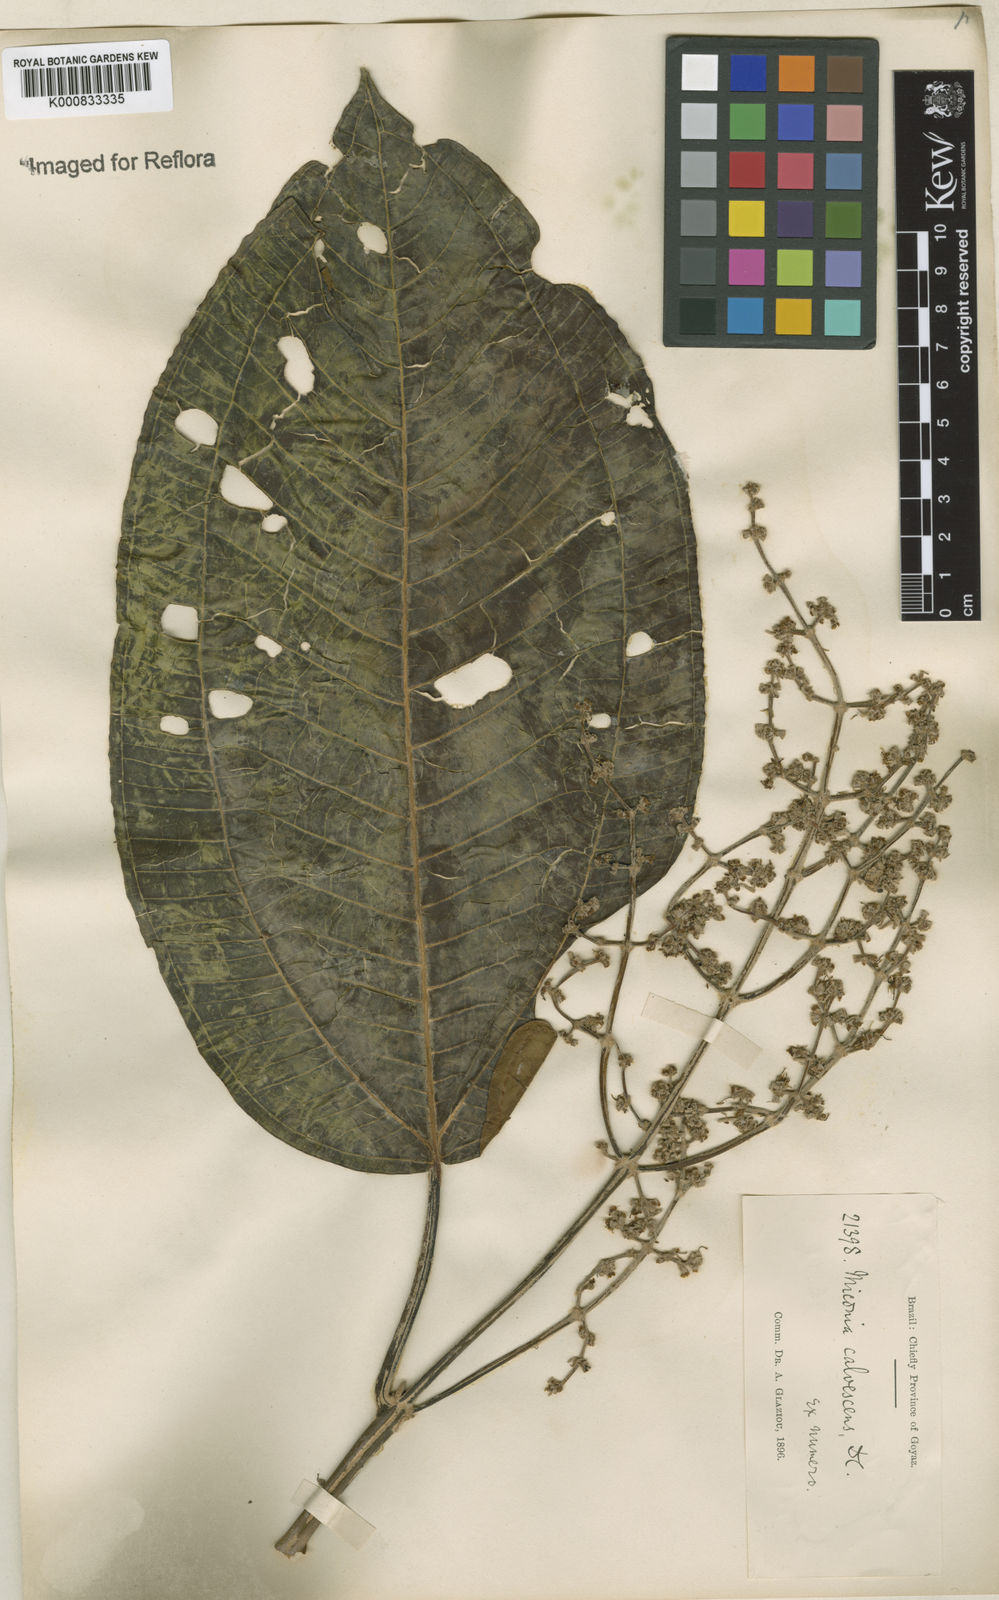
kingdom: Plantae
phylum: Tracheophyta
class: Magnoliopsida
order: Myrtales
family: Melastomataceae
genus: Miconia
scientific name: Miconia calvescens
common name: Purple plague
